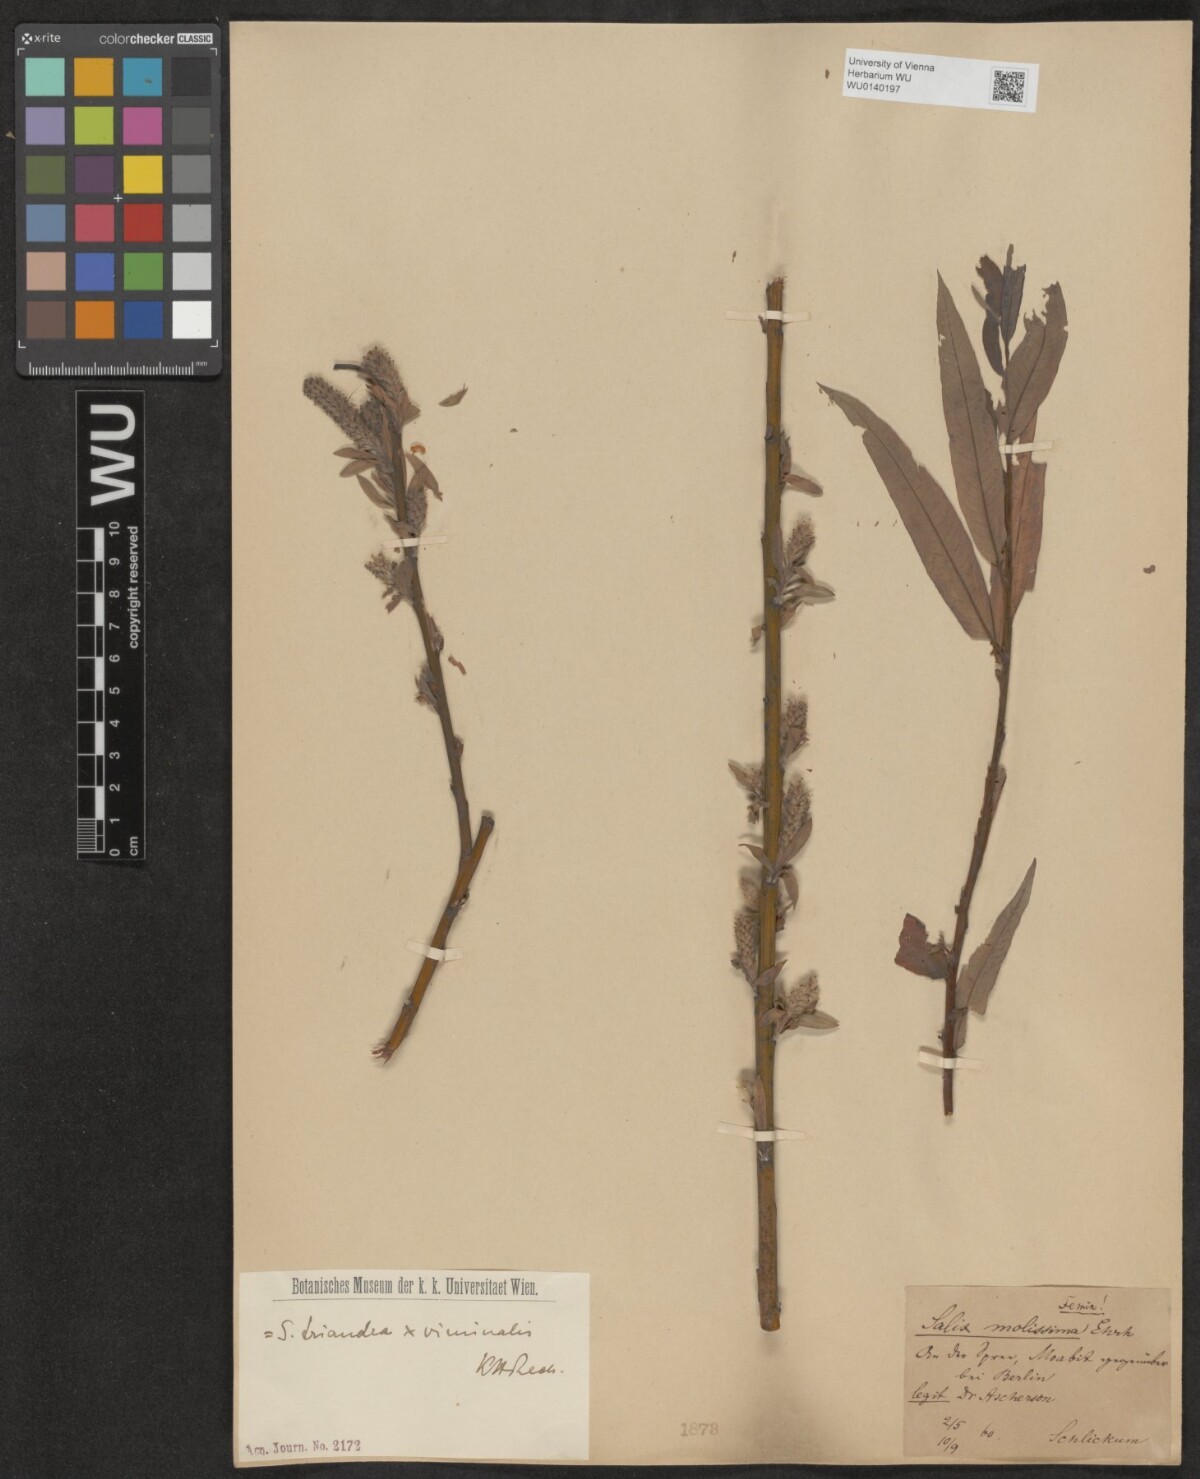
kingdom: Plantae
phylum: Tracheophyta
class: Magnoliopsida
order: Malpighiales
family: Salicaceae
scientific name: Salicaceae
